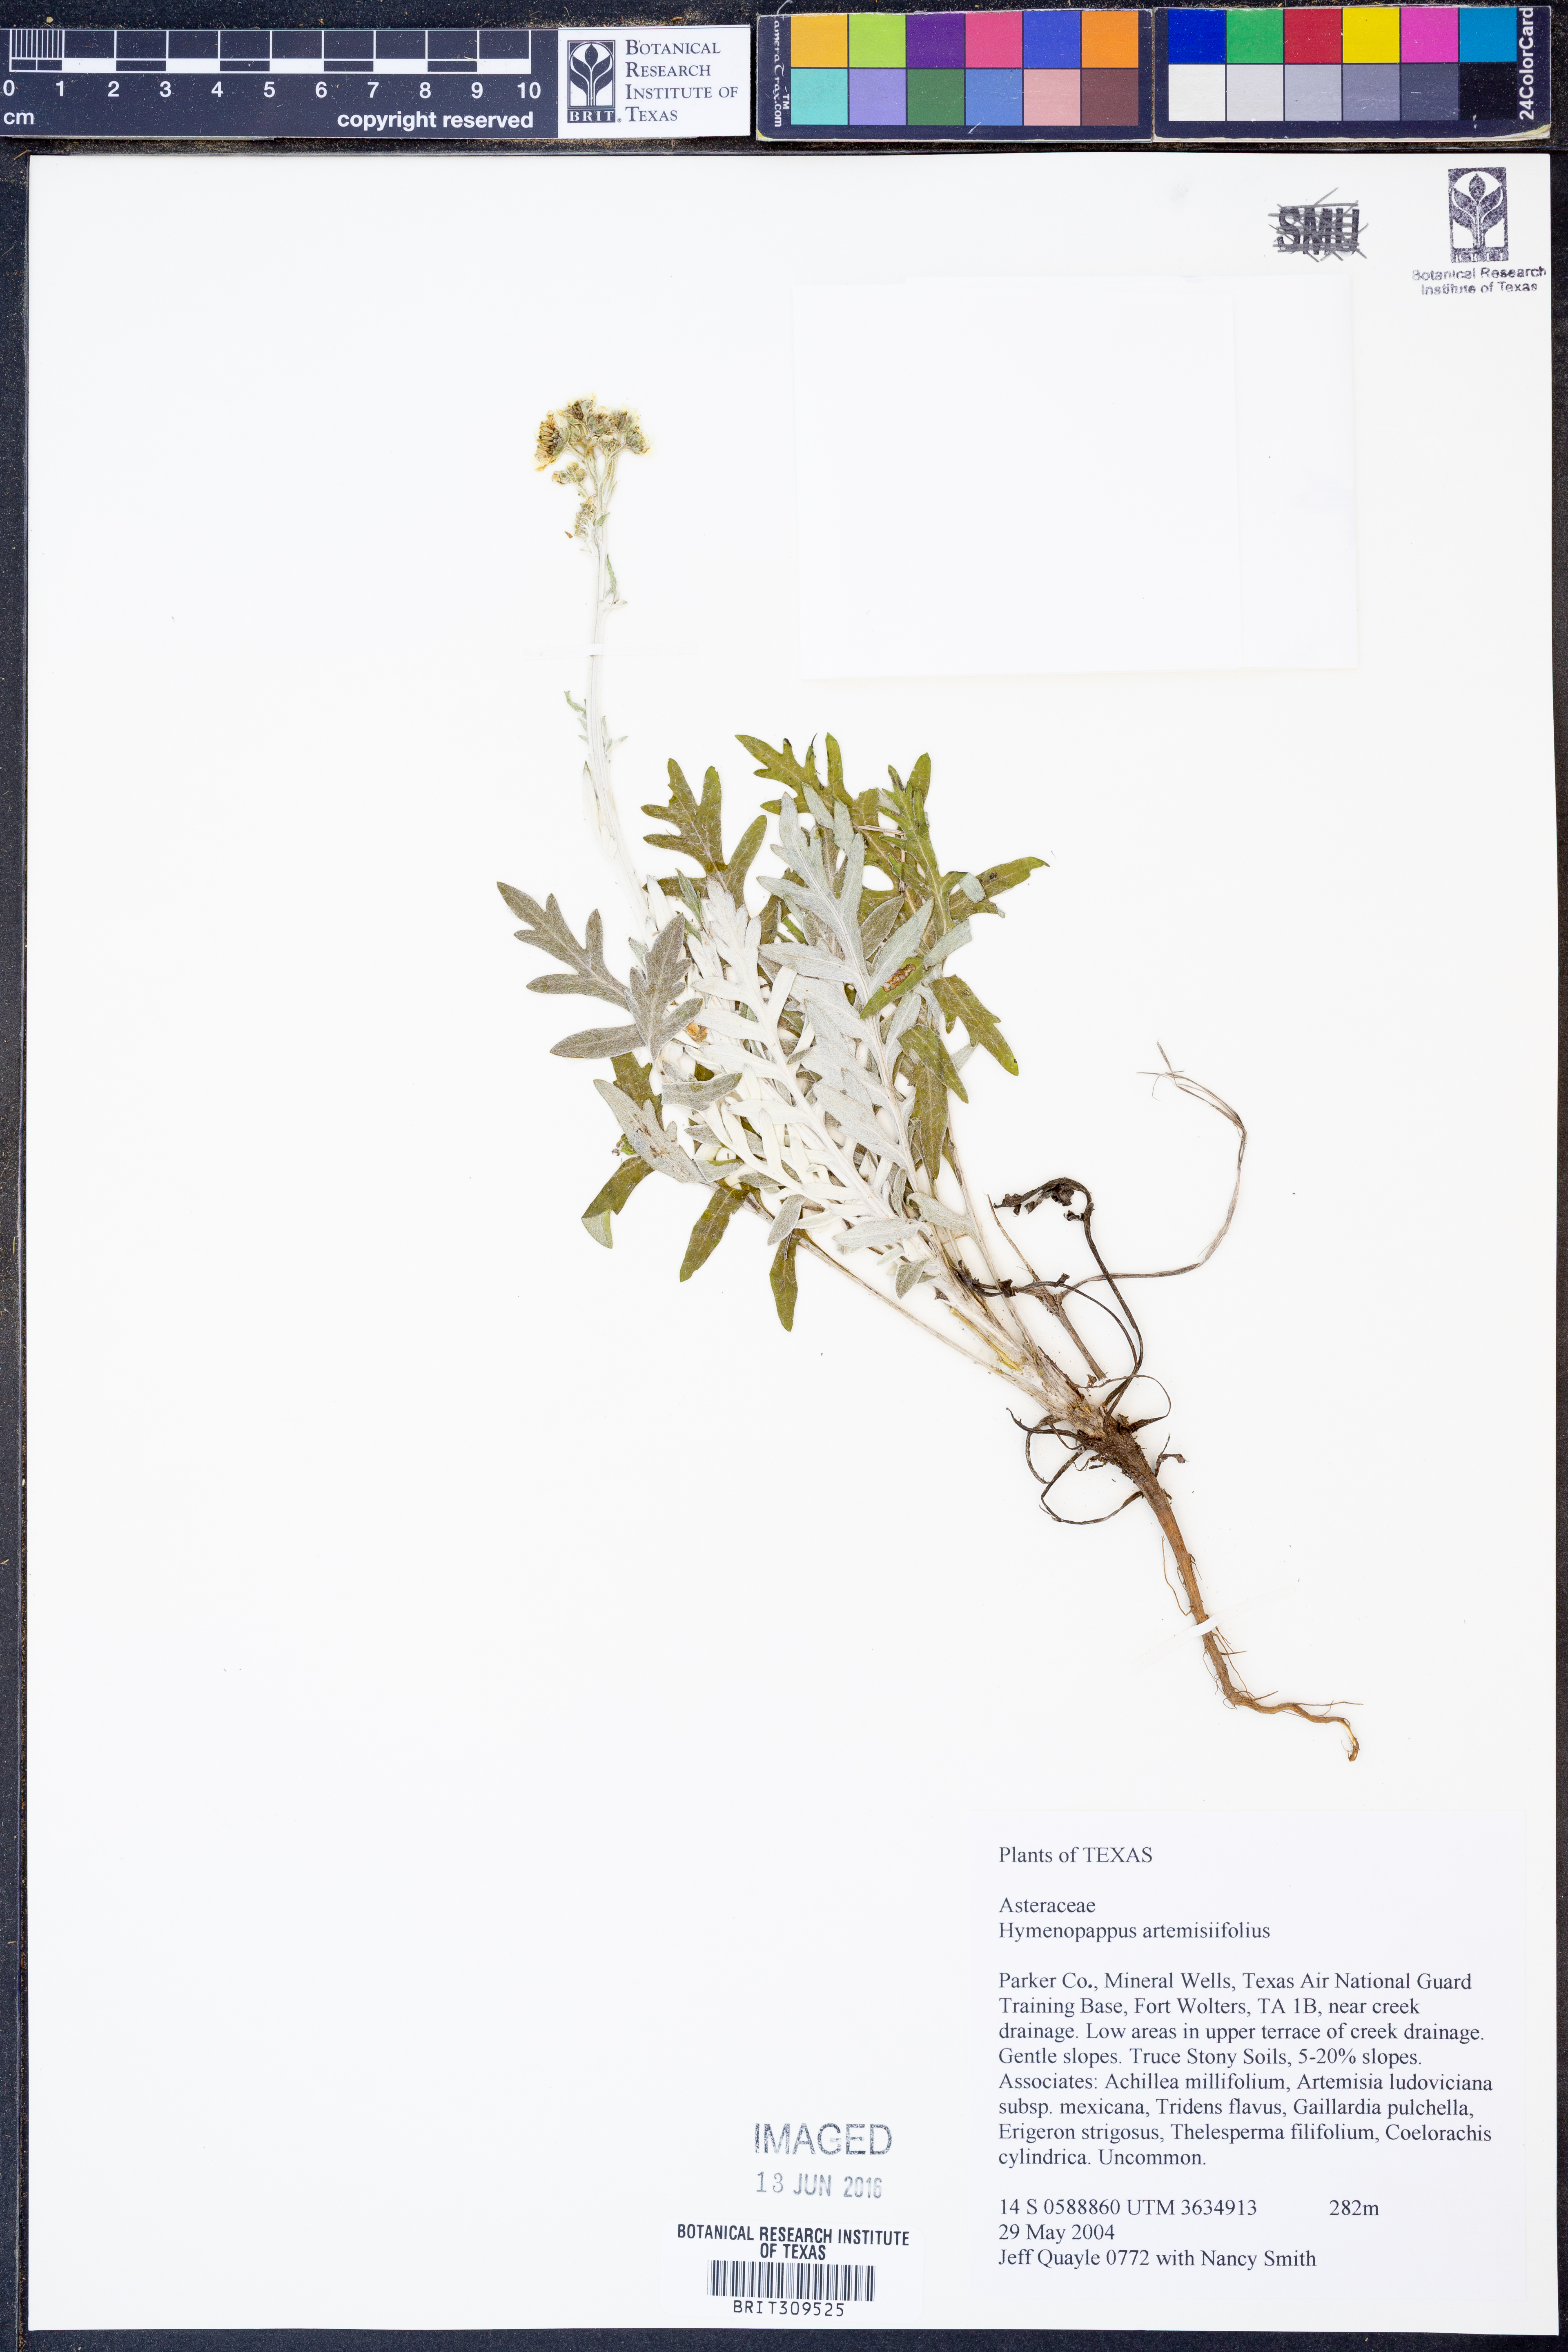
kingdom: Plantae
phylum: Tracheophyta
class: Magnoliopsida
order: Asterales
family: Asteraceae
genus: Hymenopappus
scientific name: Hymenopappus artemisiifolius
